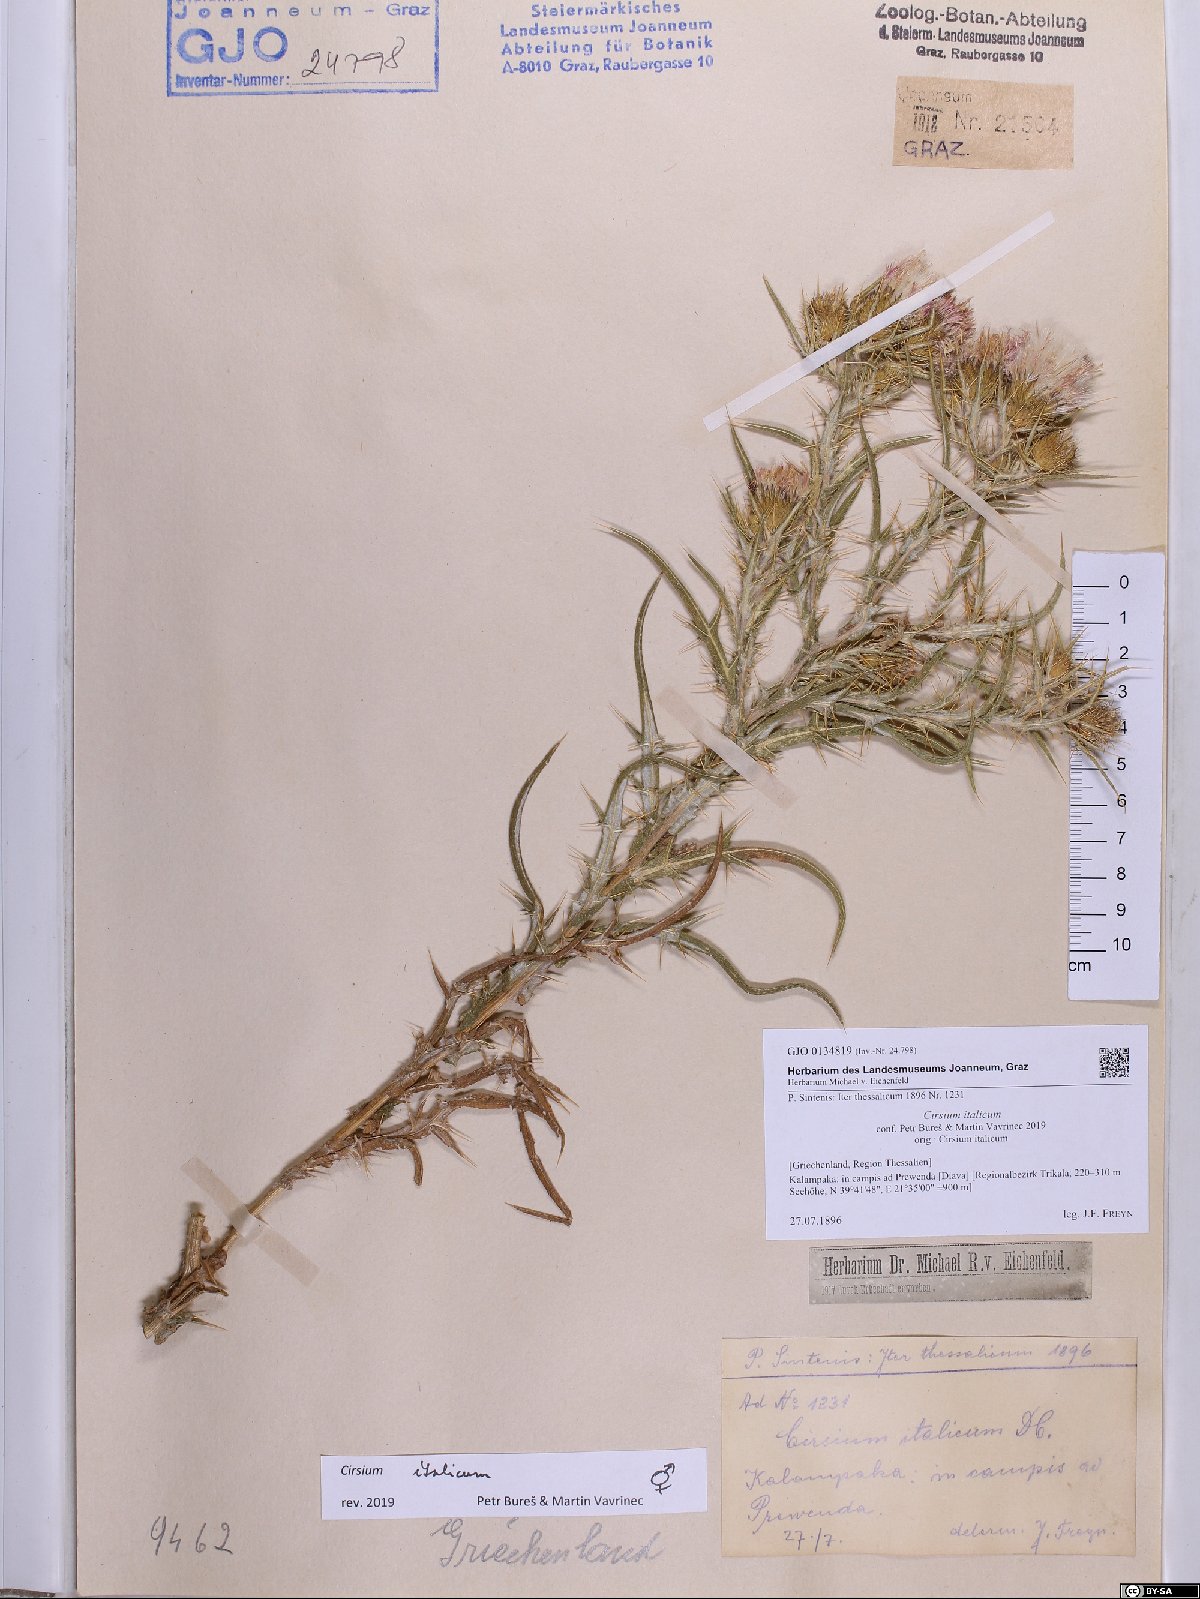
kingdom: Plantae
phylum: Tracheophyta
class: Magnoliopsida
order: Asterales
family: Asteraceae
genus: Epitrachys
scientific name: Epitrachys italica
